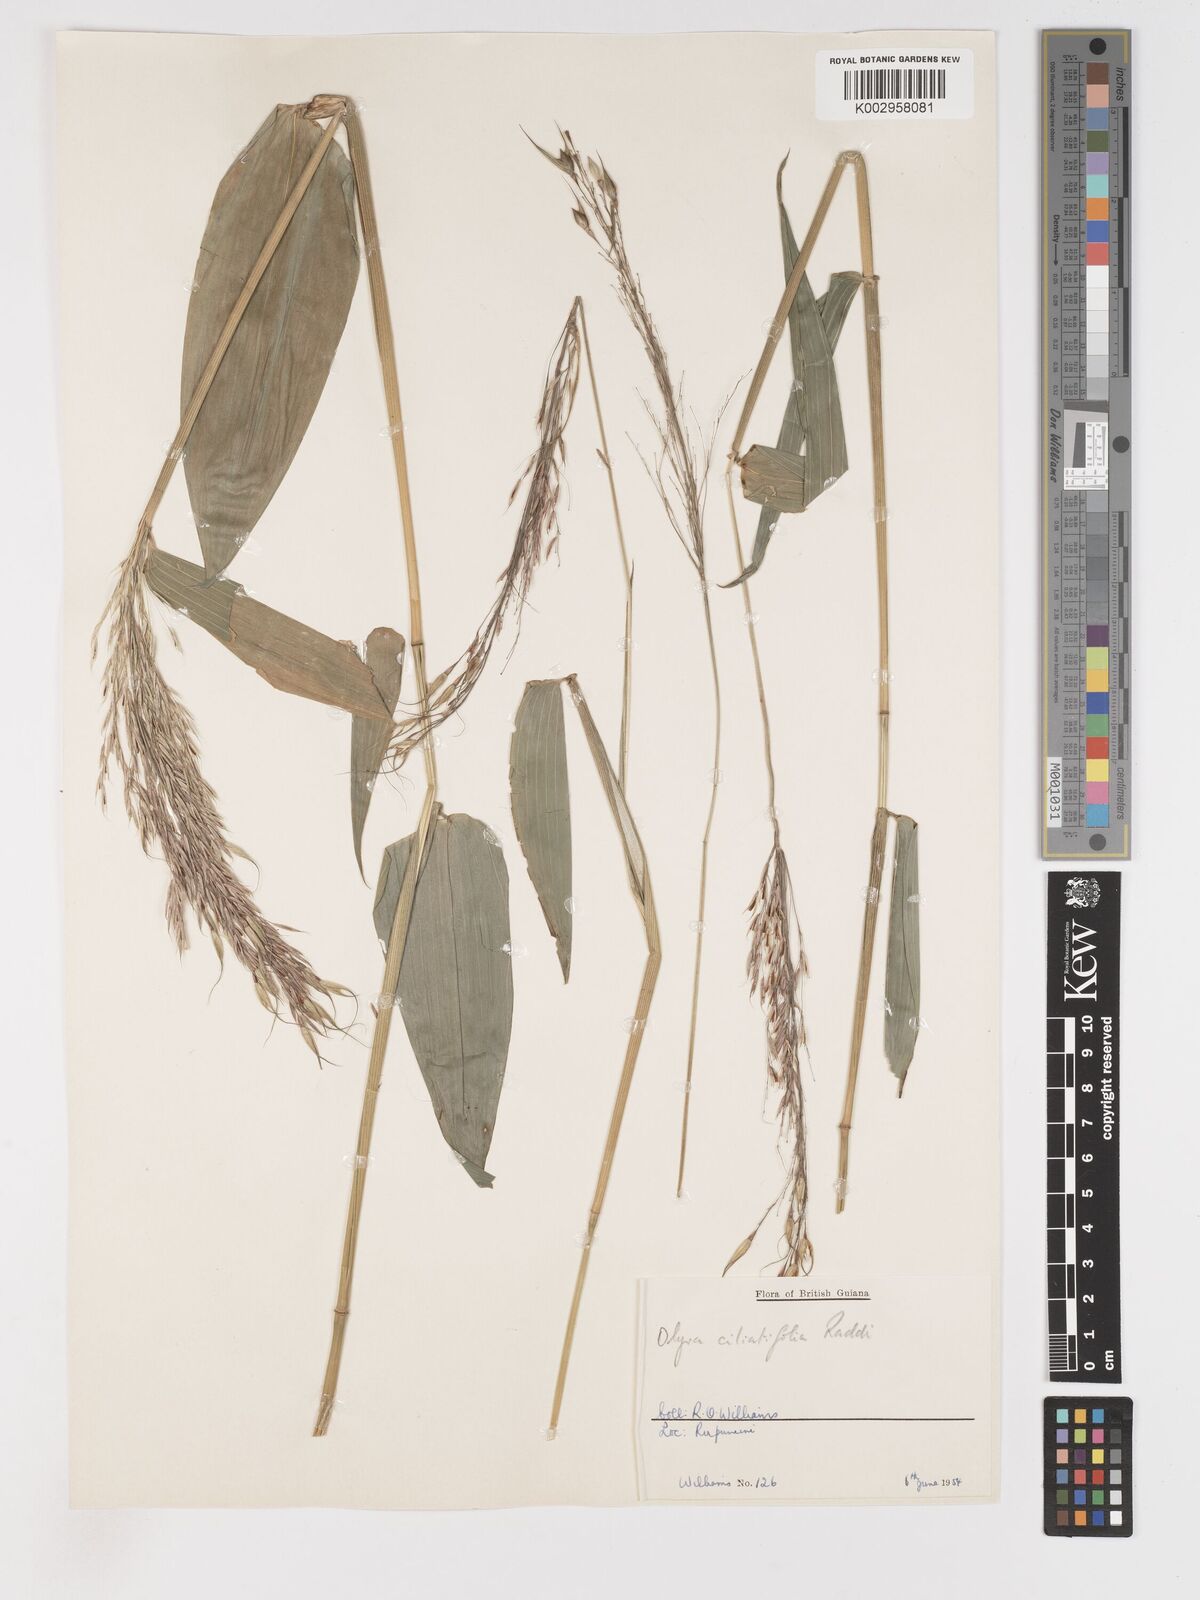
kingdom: Plantae
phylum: Tracheophyta
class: Liliopsida
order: Poales
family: Poaceae
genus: Olyra
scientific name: Olyra ciliatifolia
